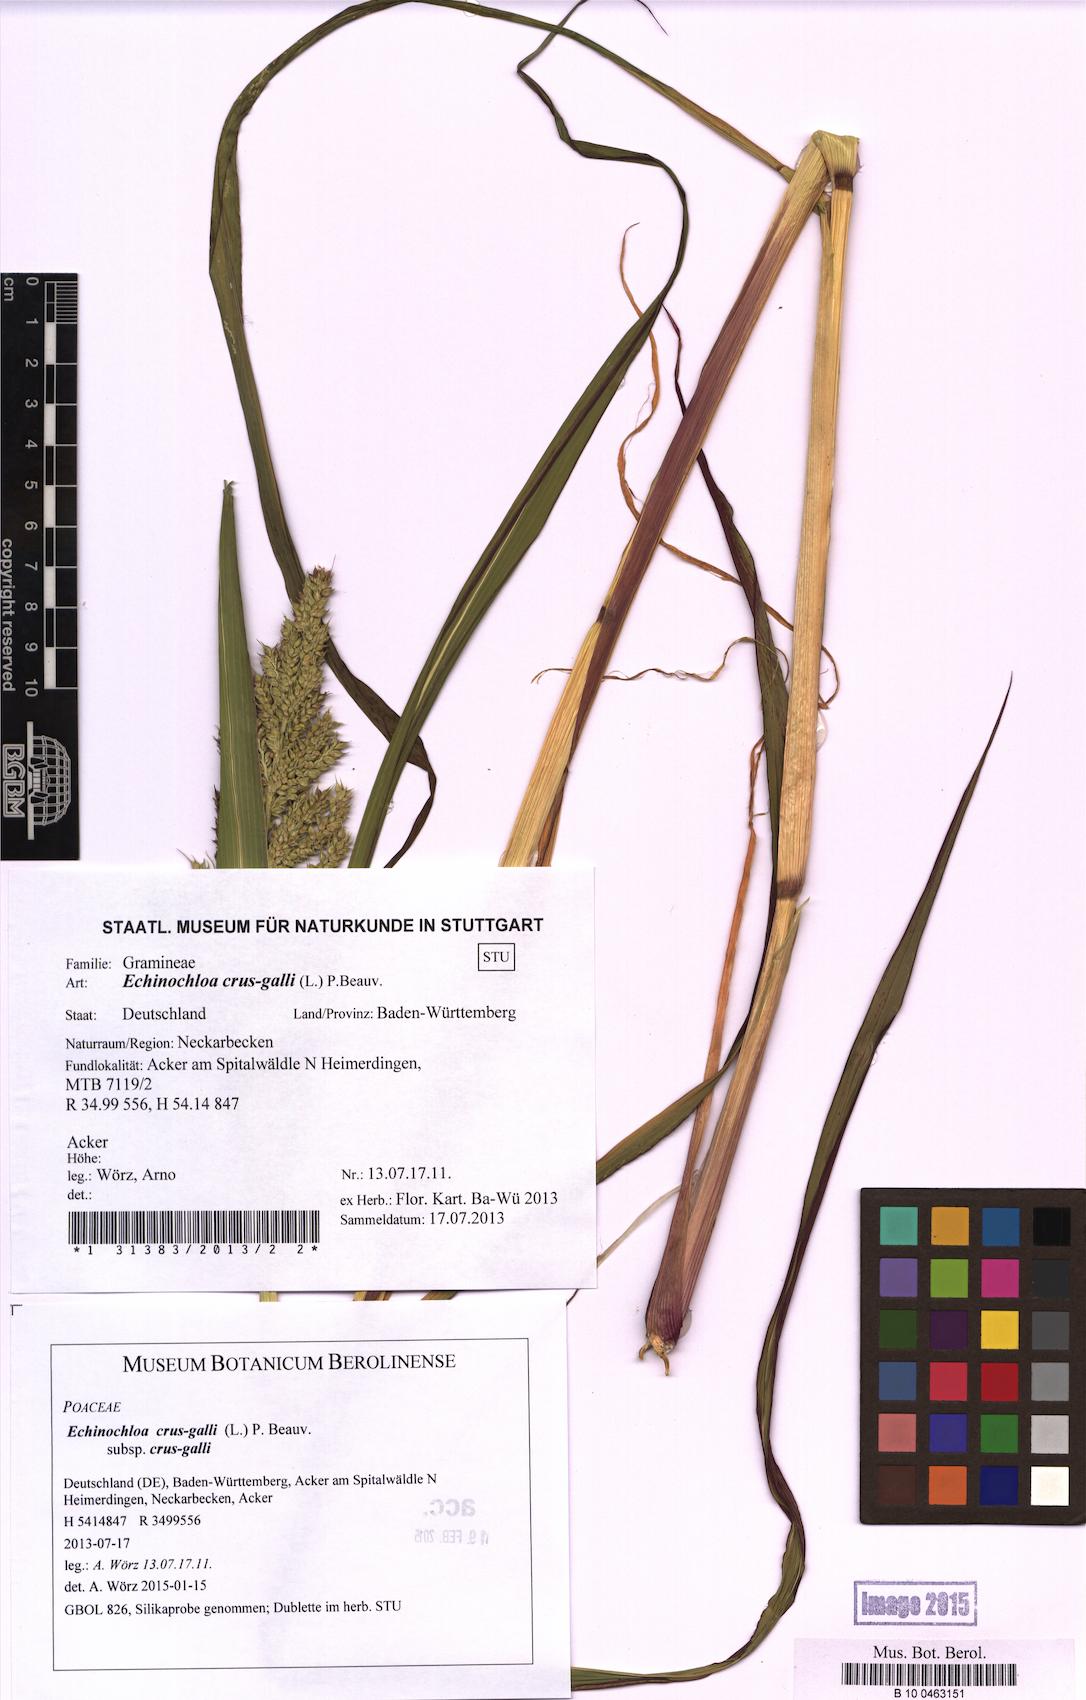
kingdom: Plantae
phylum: Tracheophyta
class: Liliopsida
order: Poales
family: Poaceae
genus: Echinochloa
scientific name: Echinochloa crus-galli
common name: Cockspur
